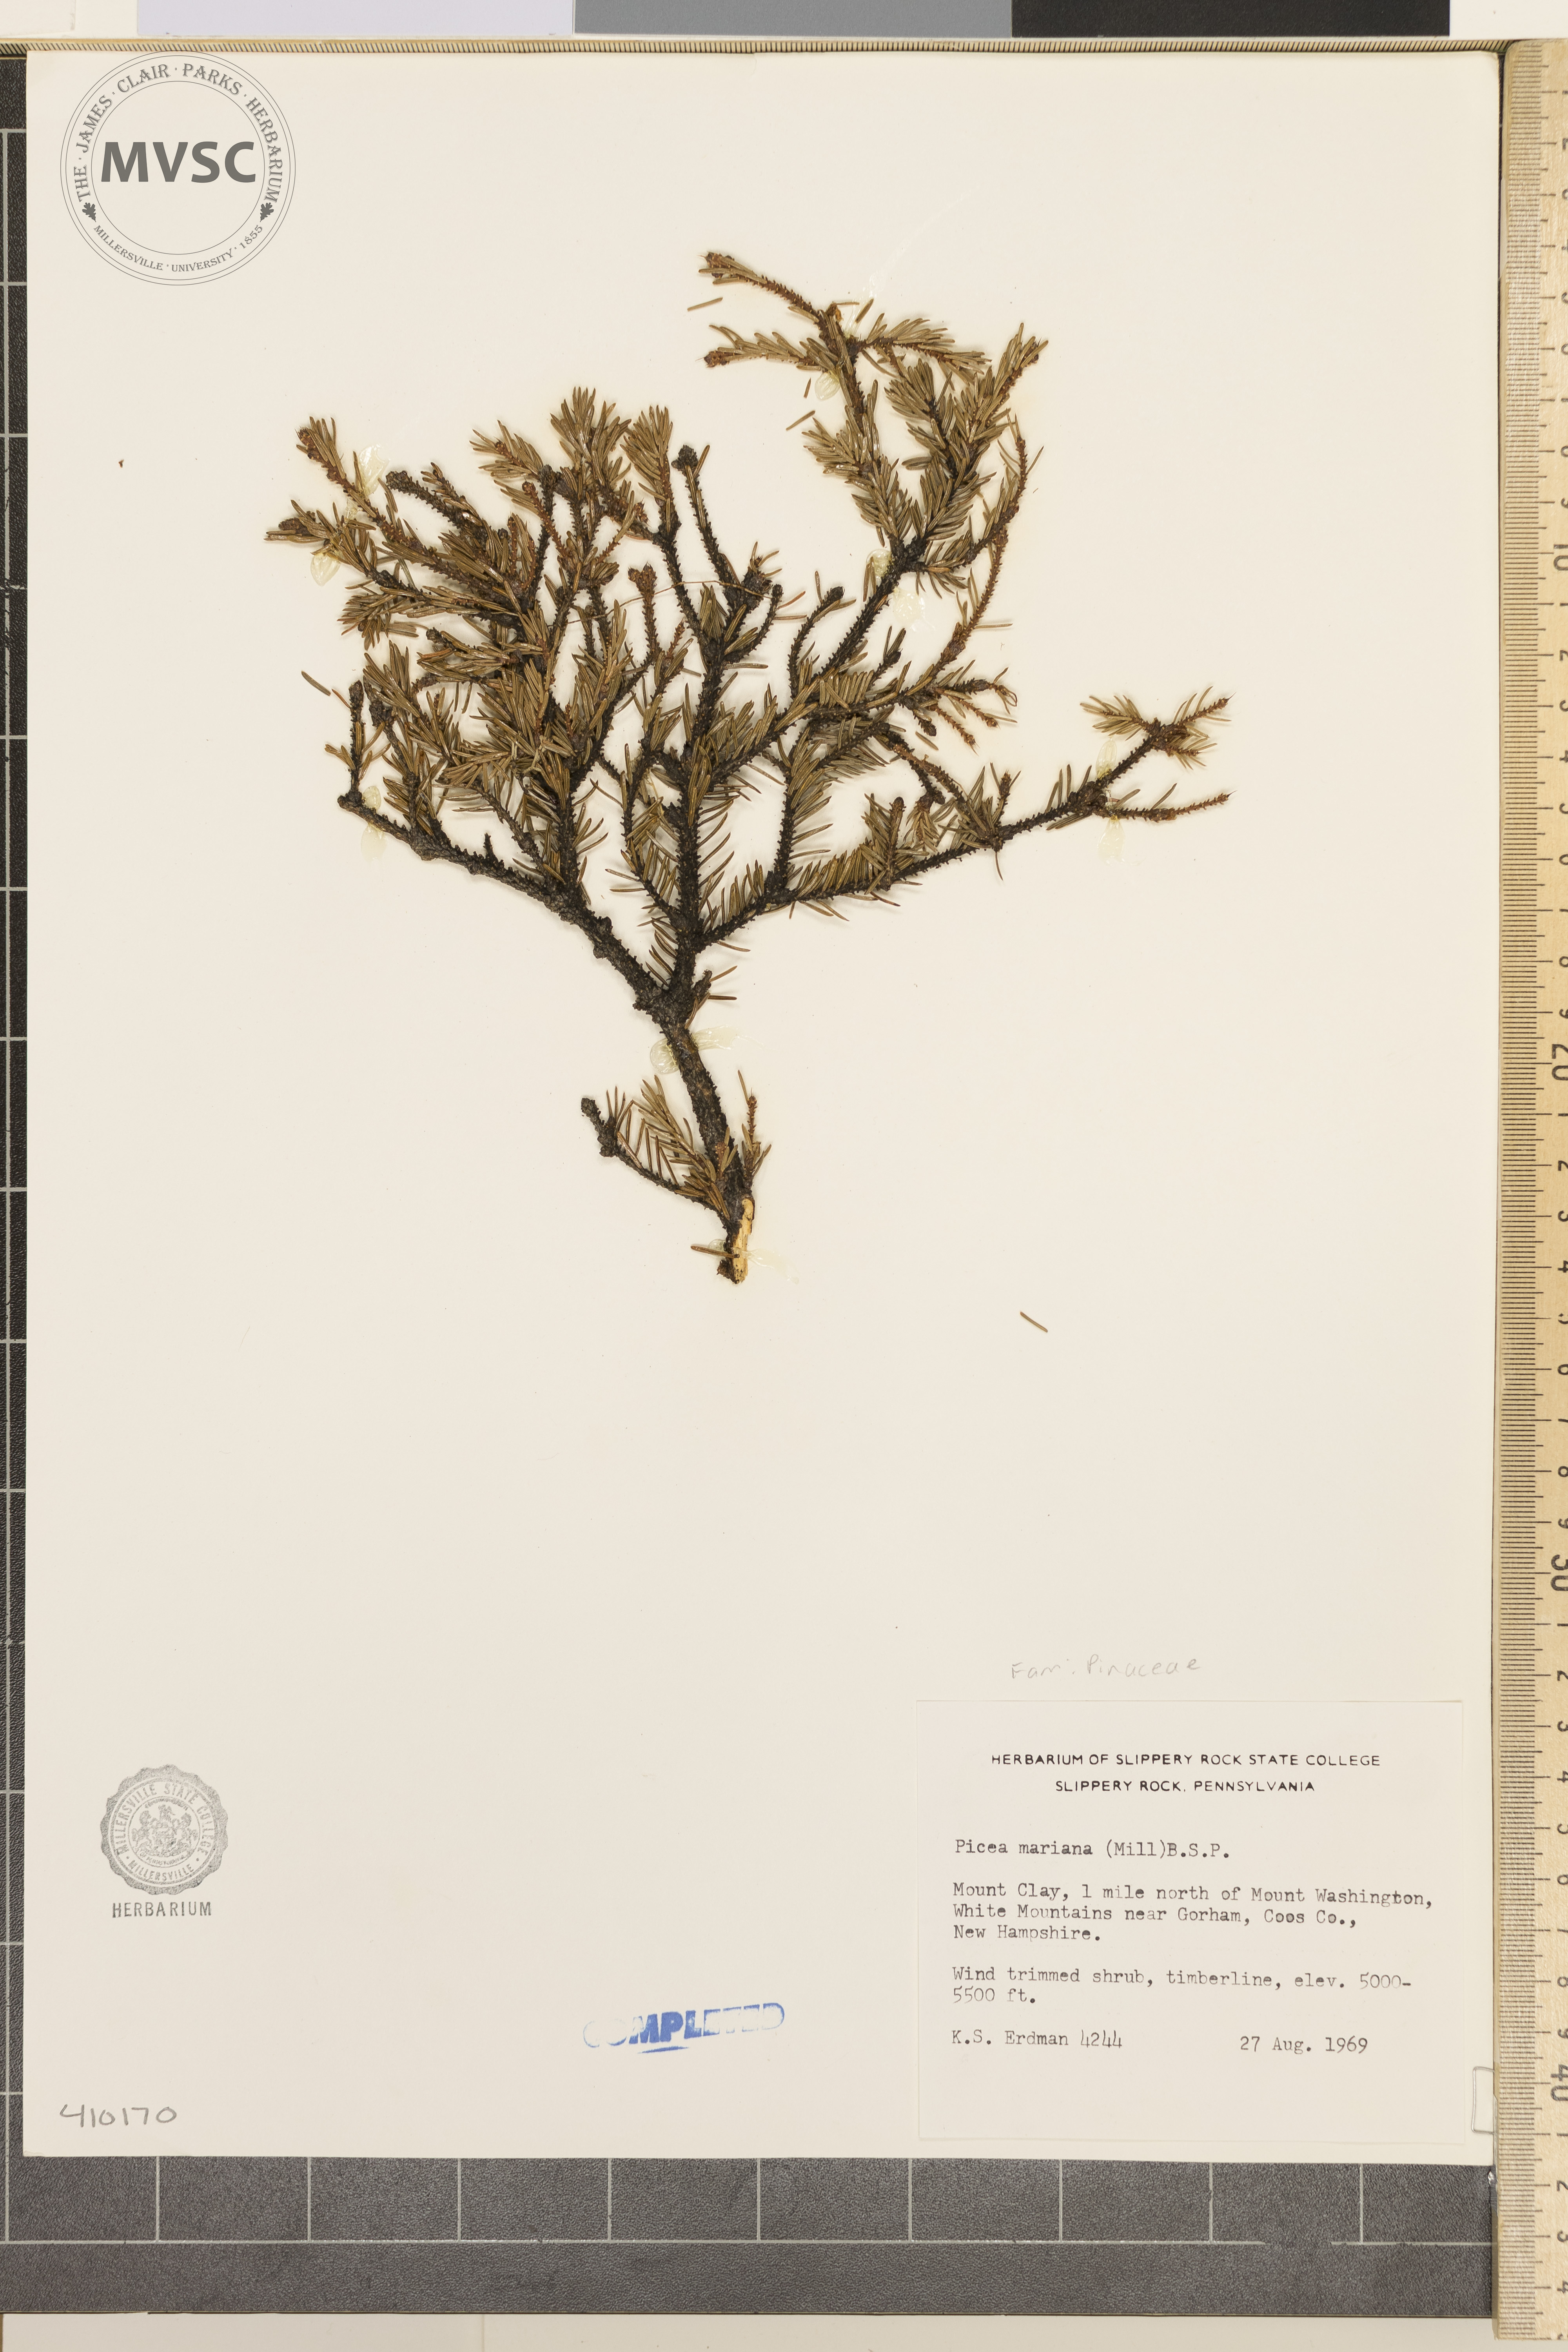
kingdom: Plantae
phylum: Tracheophyta
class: Pinopsida
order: Pinales
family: Pinaceae
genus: Picea
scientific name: Picea mariana
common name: Black spruce
